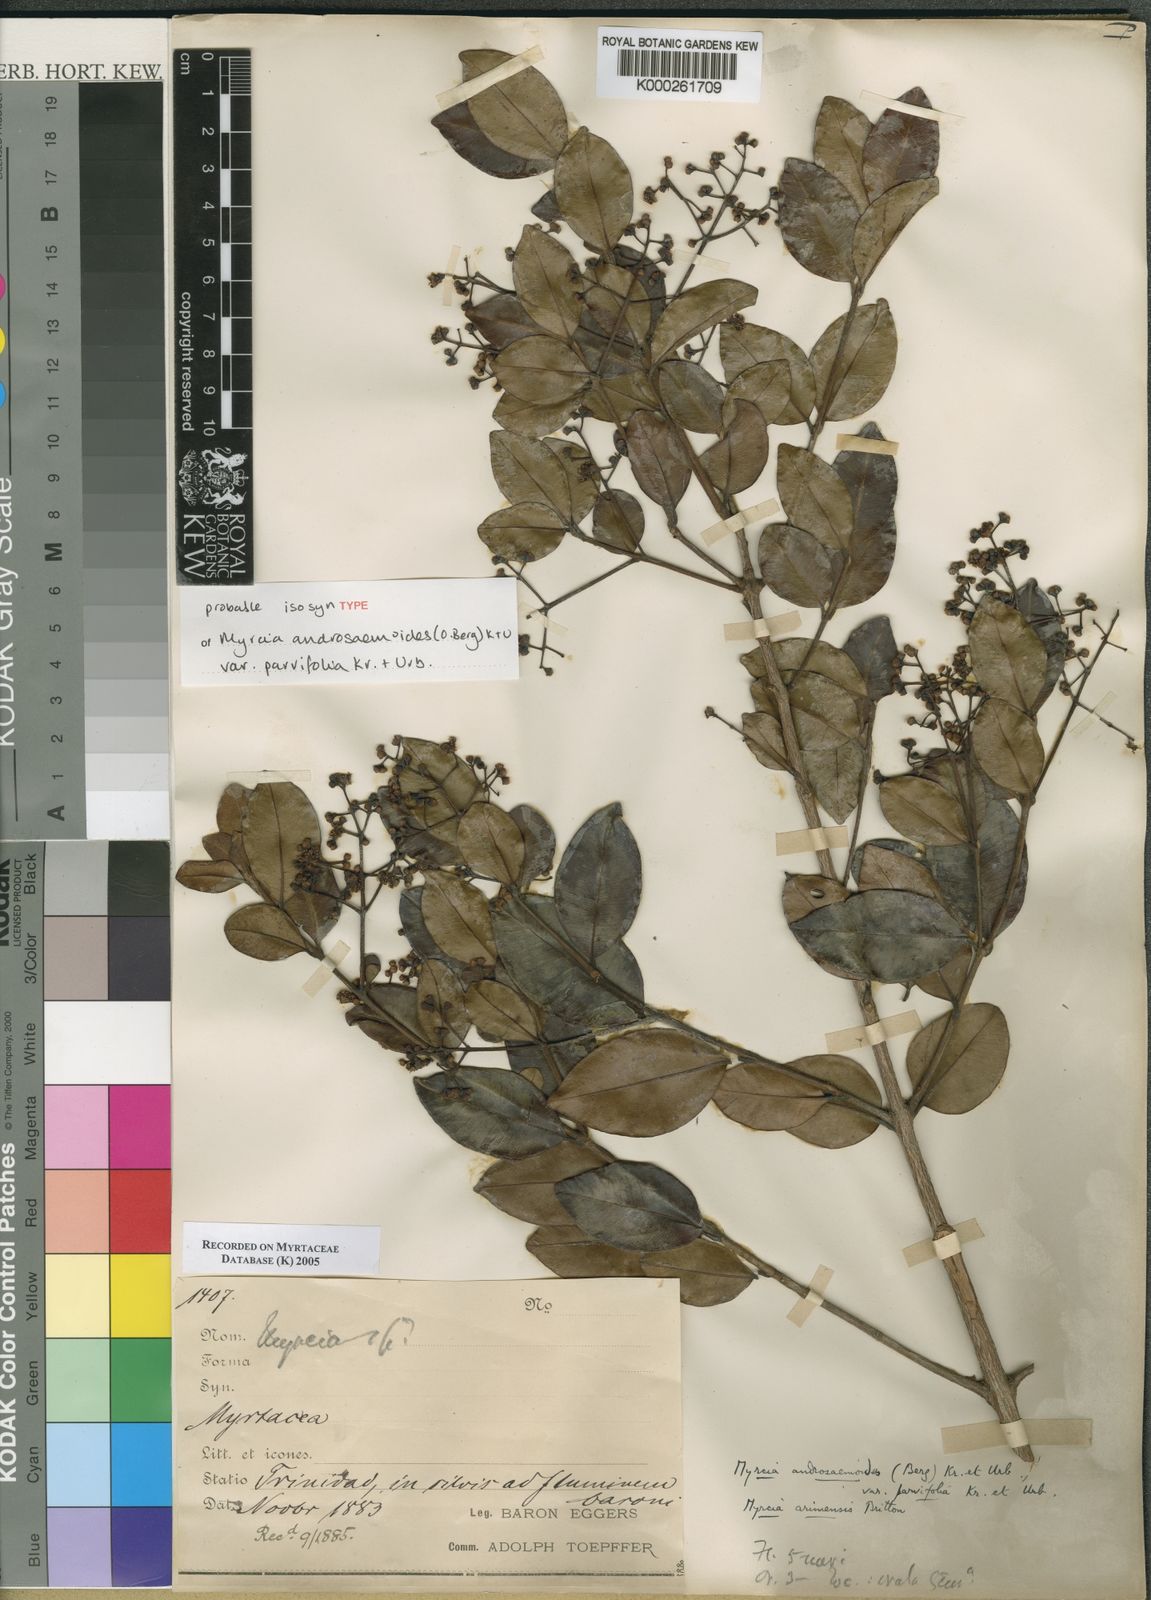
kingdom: Plantae
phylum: Tracheophyta
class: Magnoliopsida
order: Myrtales
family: Myrtaceae
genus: Myrcia
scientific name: Myrcia guianensis
